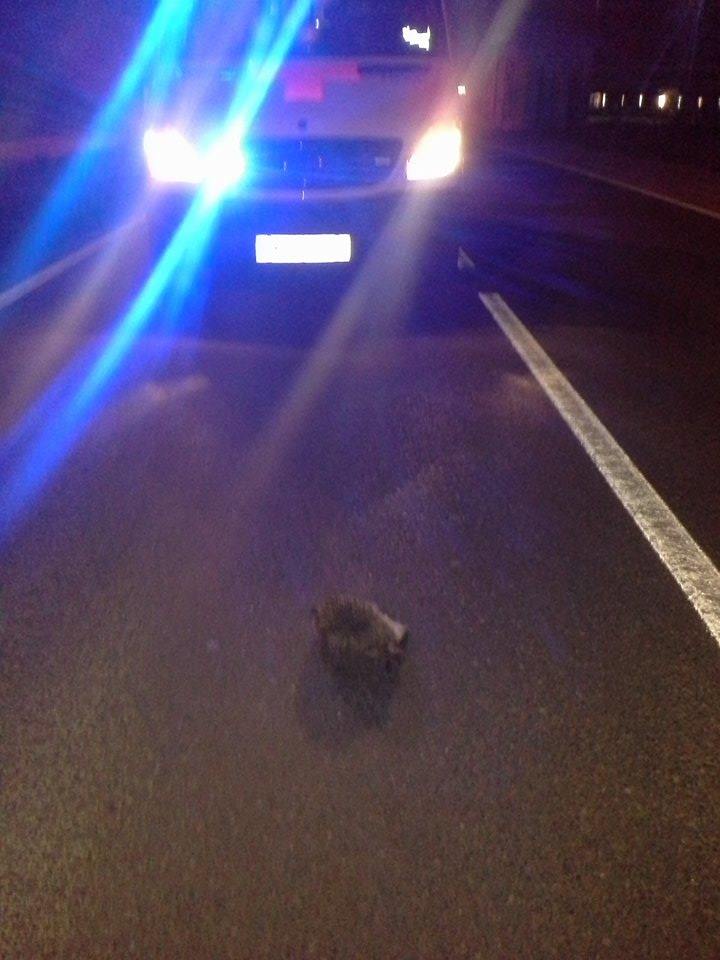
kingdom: Animalia
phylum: Chordata
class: Mammalia
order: Erinaceomorpha
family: Erinaceidae
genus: Erinaceus
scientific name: Erinaceus
